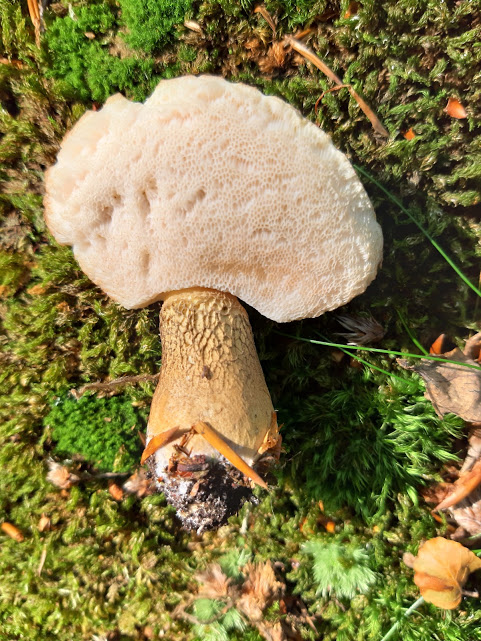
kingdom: Fungi
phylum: Basidiomycota
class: Agaricomycetes
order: Boletales
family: Boletaceae
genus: Tylopilus
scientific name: Tylopilus felleus
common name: galderørhat
